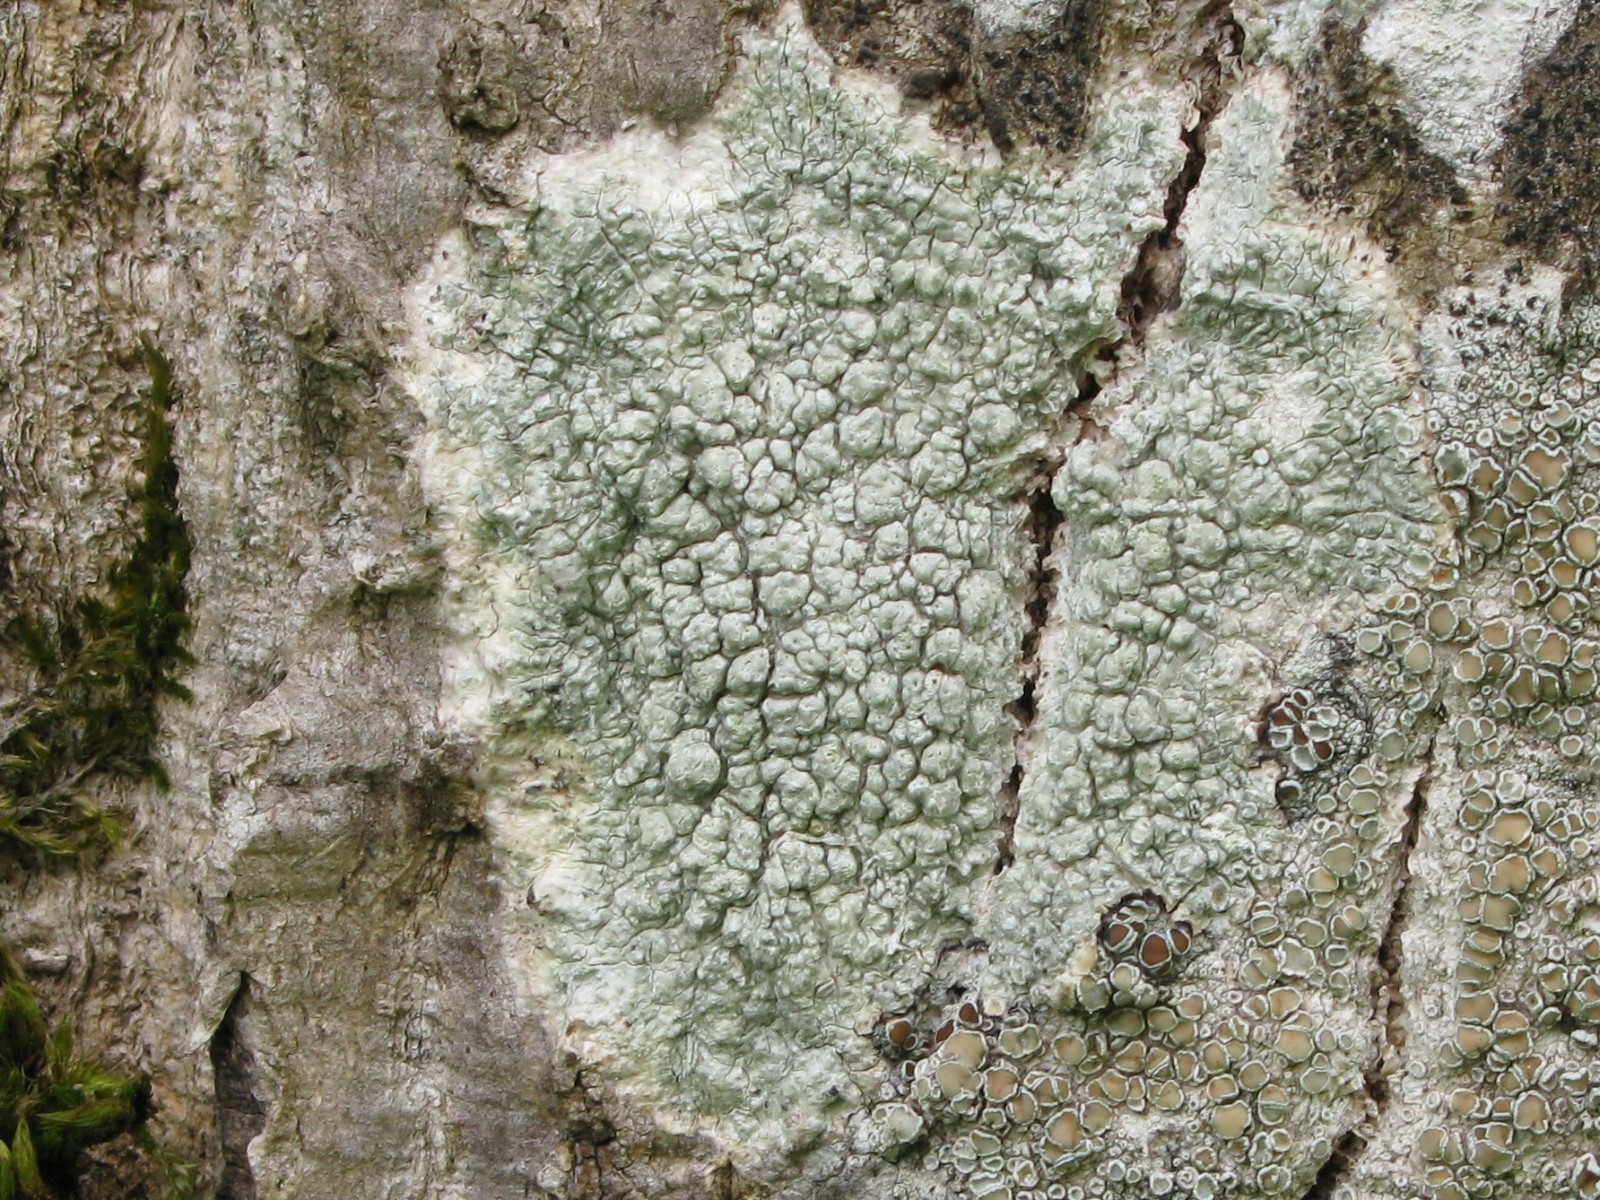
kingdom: Fungi
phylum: Ascomycota
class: Lecanoromycetes
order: Pertusariales
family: Pertusariaceae
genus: Pertusaria
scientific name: Pertusaria pertusa
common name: almindelig prikvortelav
